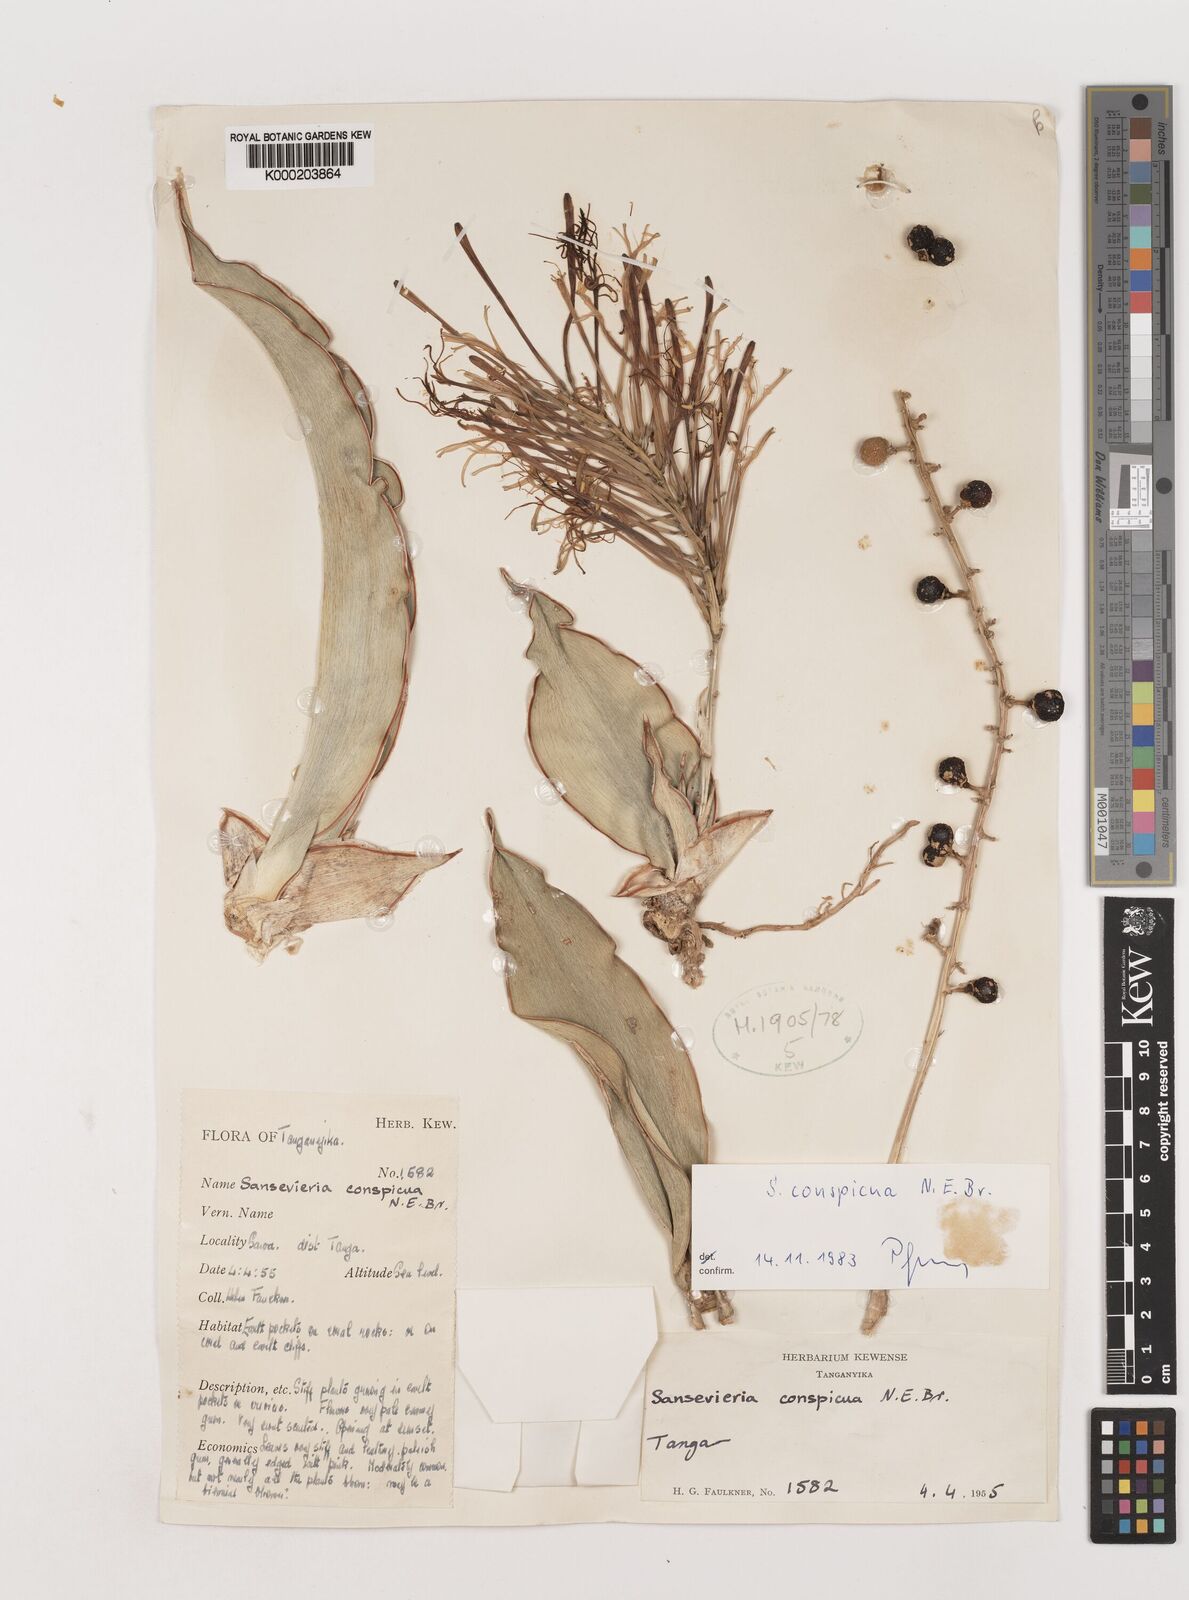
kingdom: Plantae
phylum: Tracheophyta
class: Liliopsida
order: Asparagales
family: Asparagaceae
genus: Dracaena
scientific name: Dracaena conspicua
